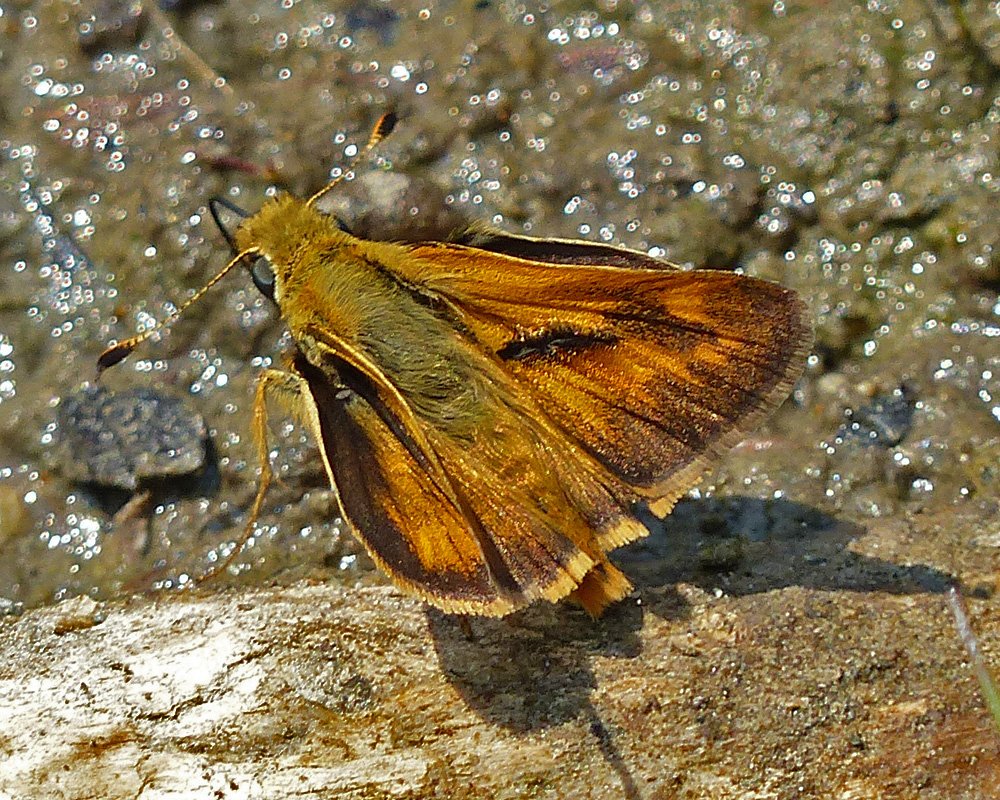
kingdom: Animalia
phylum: Arthropoda
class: Insecta
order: Lepidoptera
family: Hesperiidae
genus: Ochlodes
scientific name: Ochlodes sylvanoides
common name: Woodland Skipper
